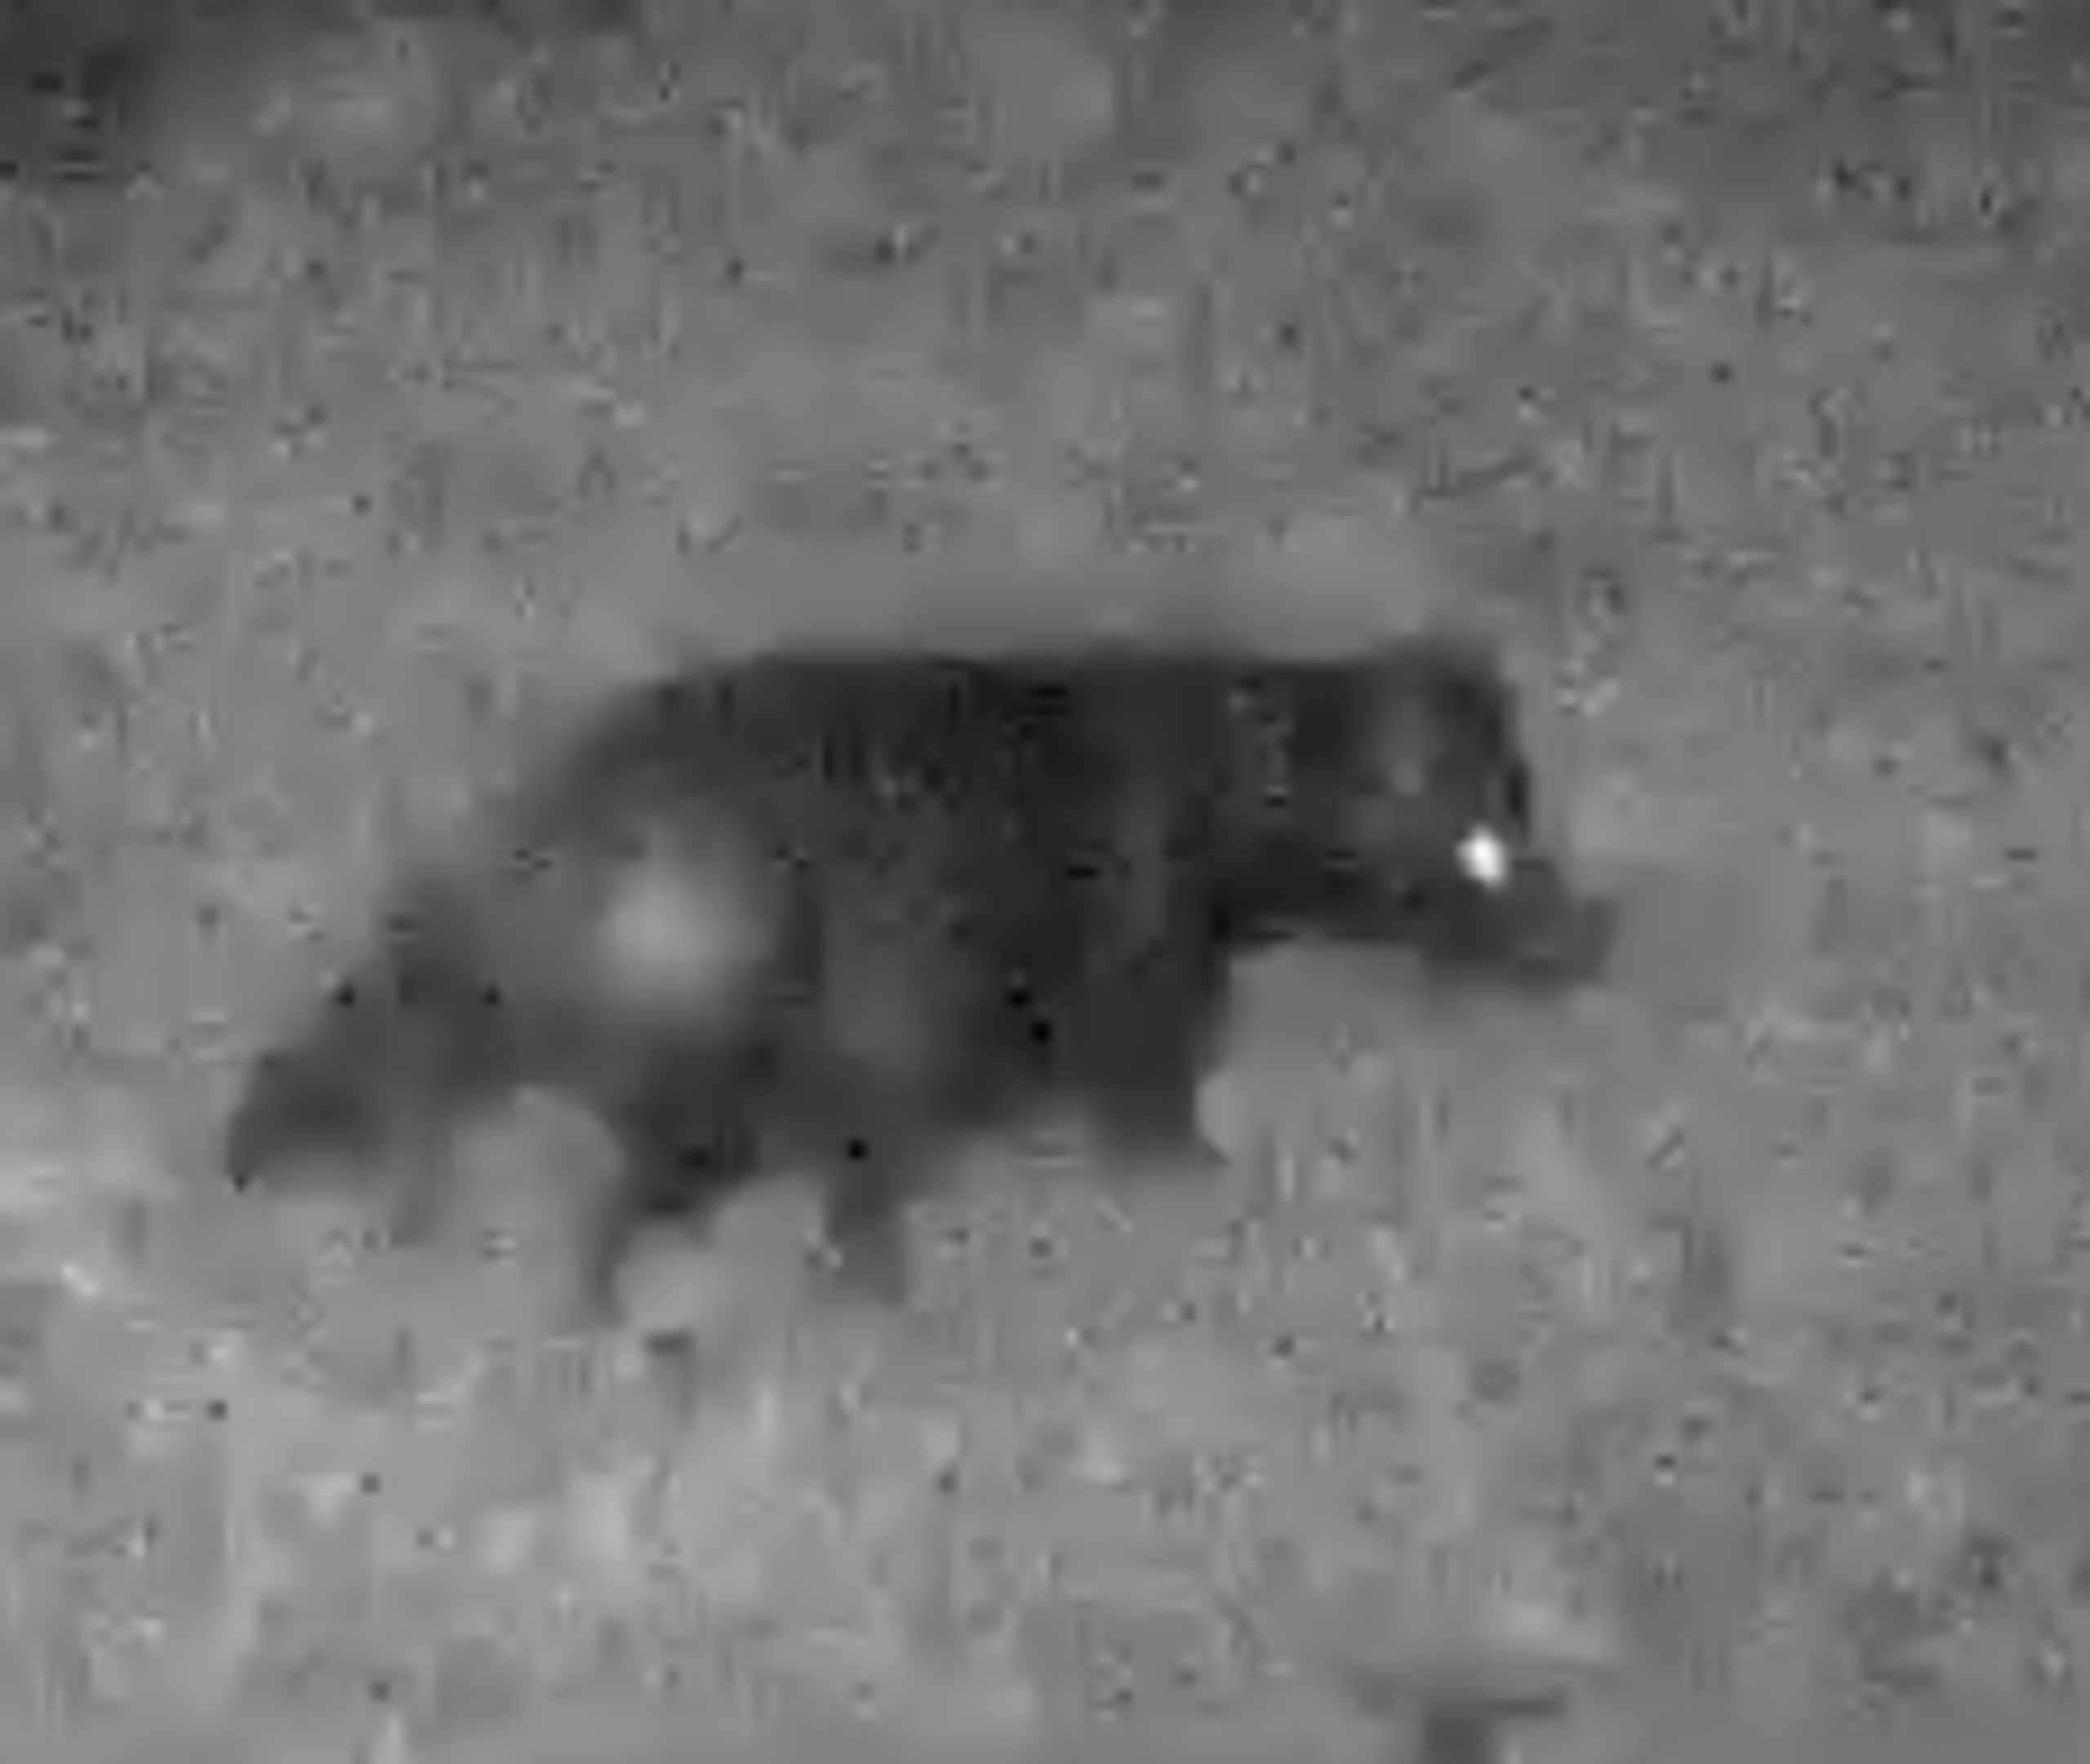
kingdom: Animalia
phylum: Chordata
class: Mammalia
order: Carnivora
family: Canidae
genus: Nyctereutes
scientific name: Nyctereutes procyonoides
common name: Mårhund
